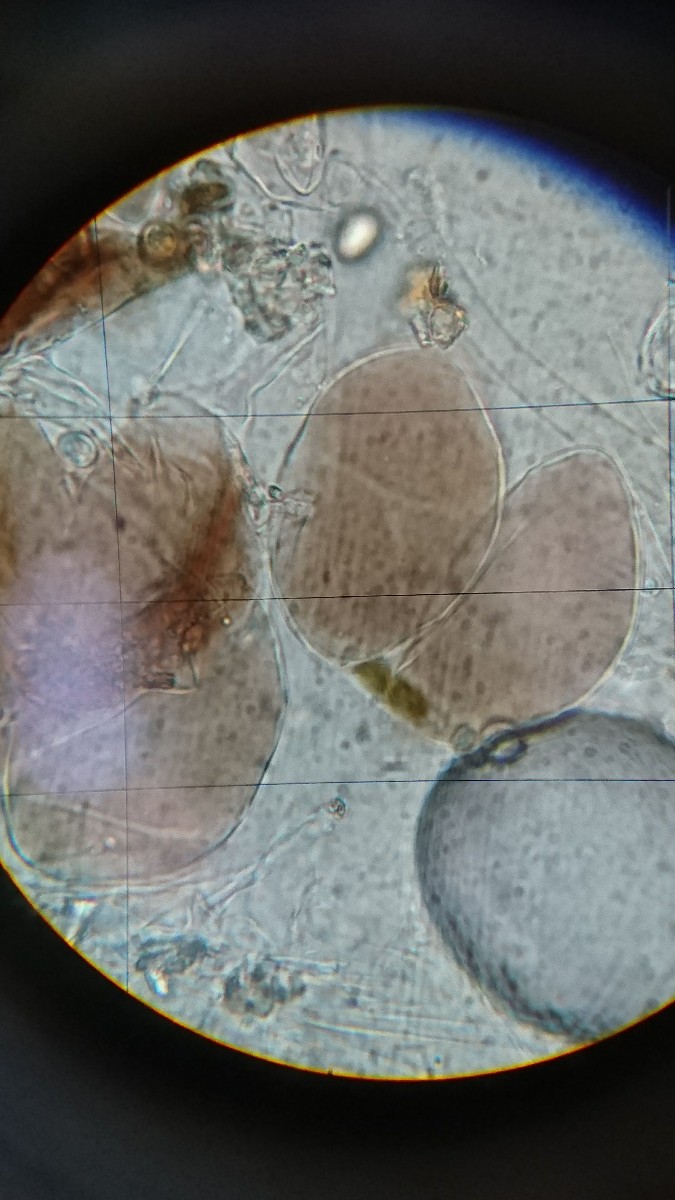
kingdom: Fungi
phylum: Basidiomycota
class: Agaricomycetes
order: Agaricales
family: Pluteaceae
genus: Pluteus
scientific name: Pluteus podospileus
